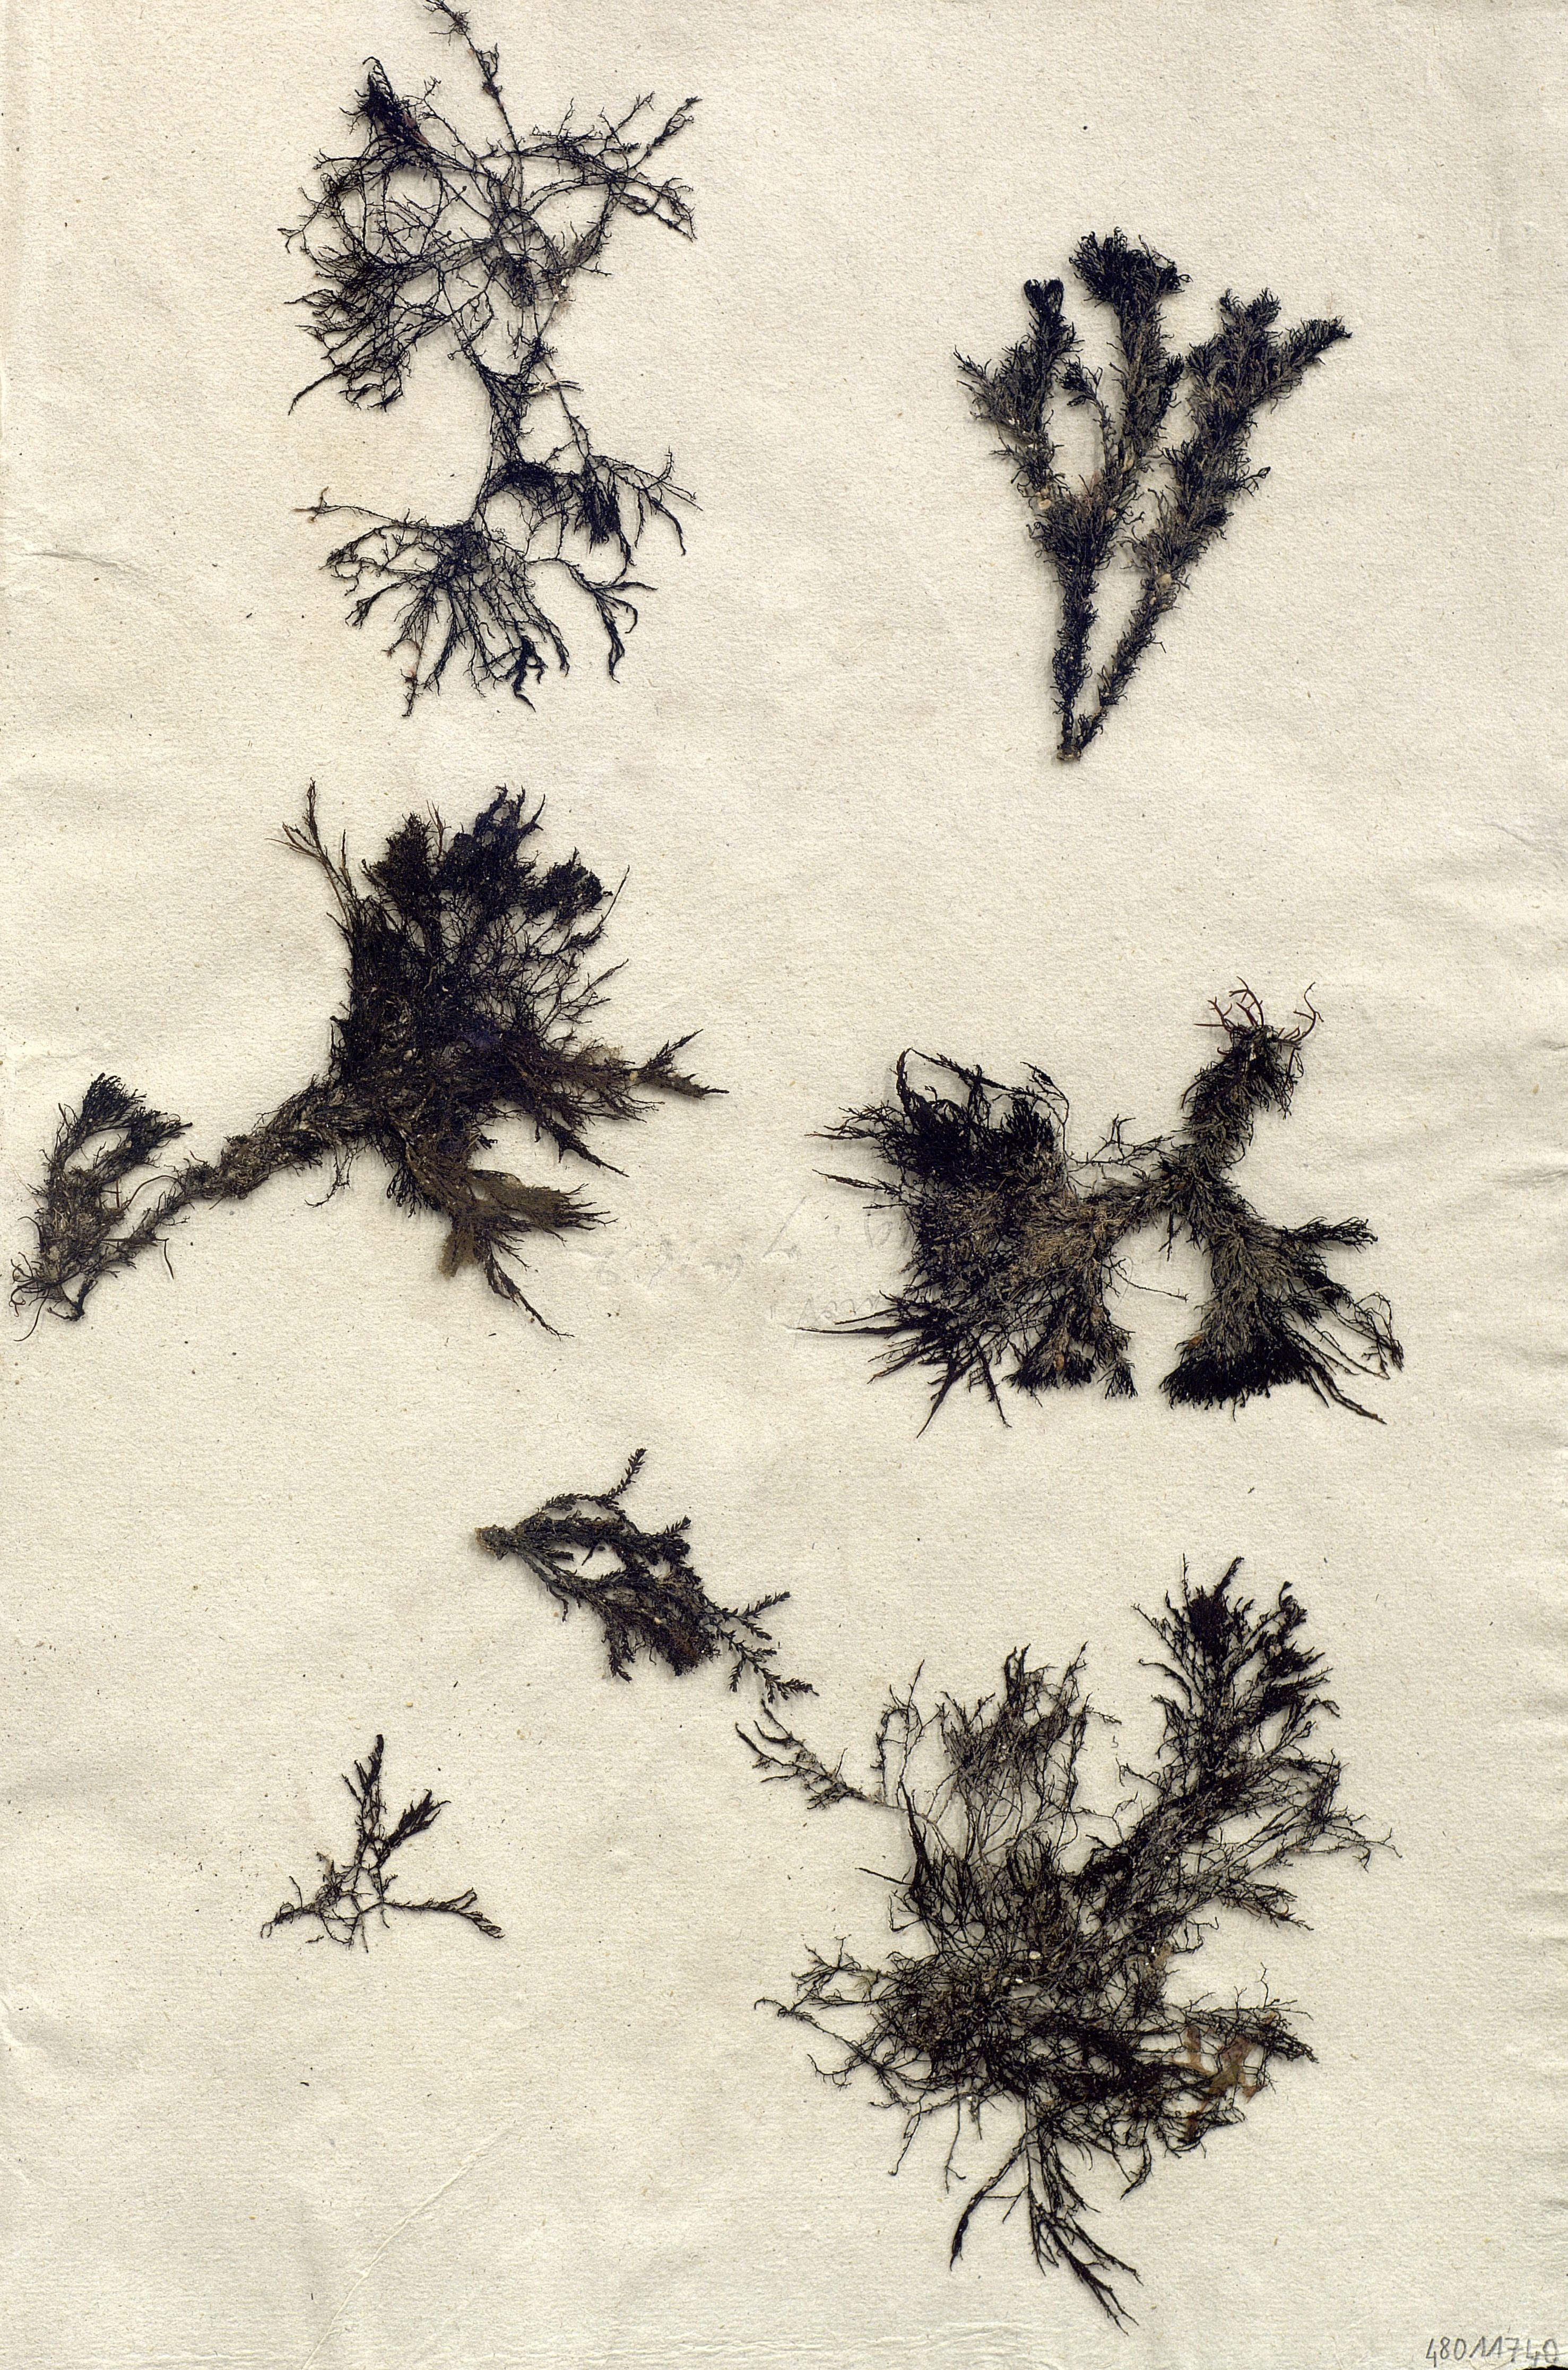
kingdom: Plantae
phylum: Rhodophyta
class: Florideophyceae
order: Ceramiales
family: Ceramiaceae
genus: Ceramium
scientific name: Ceramium
